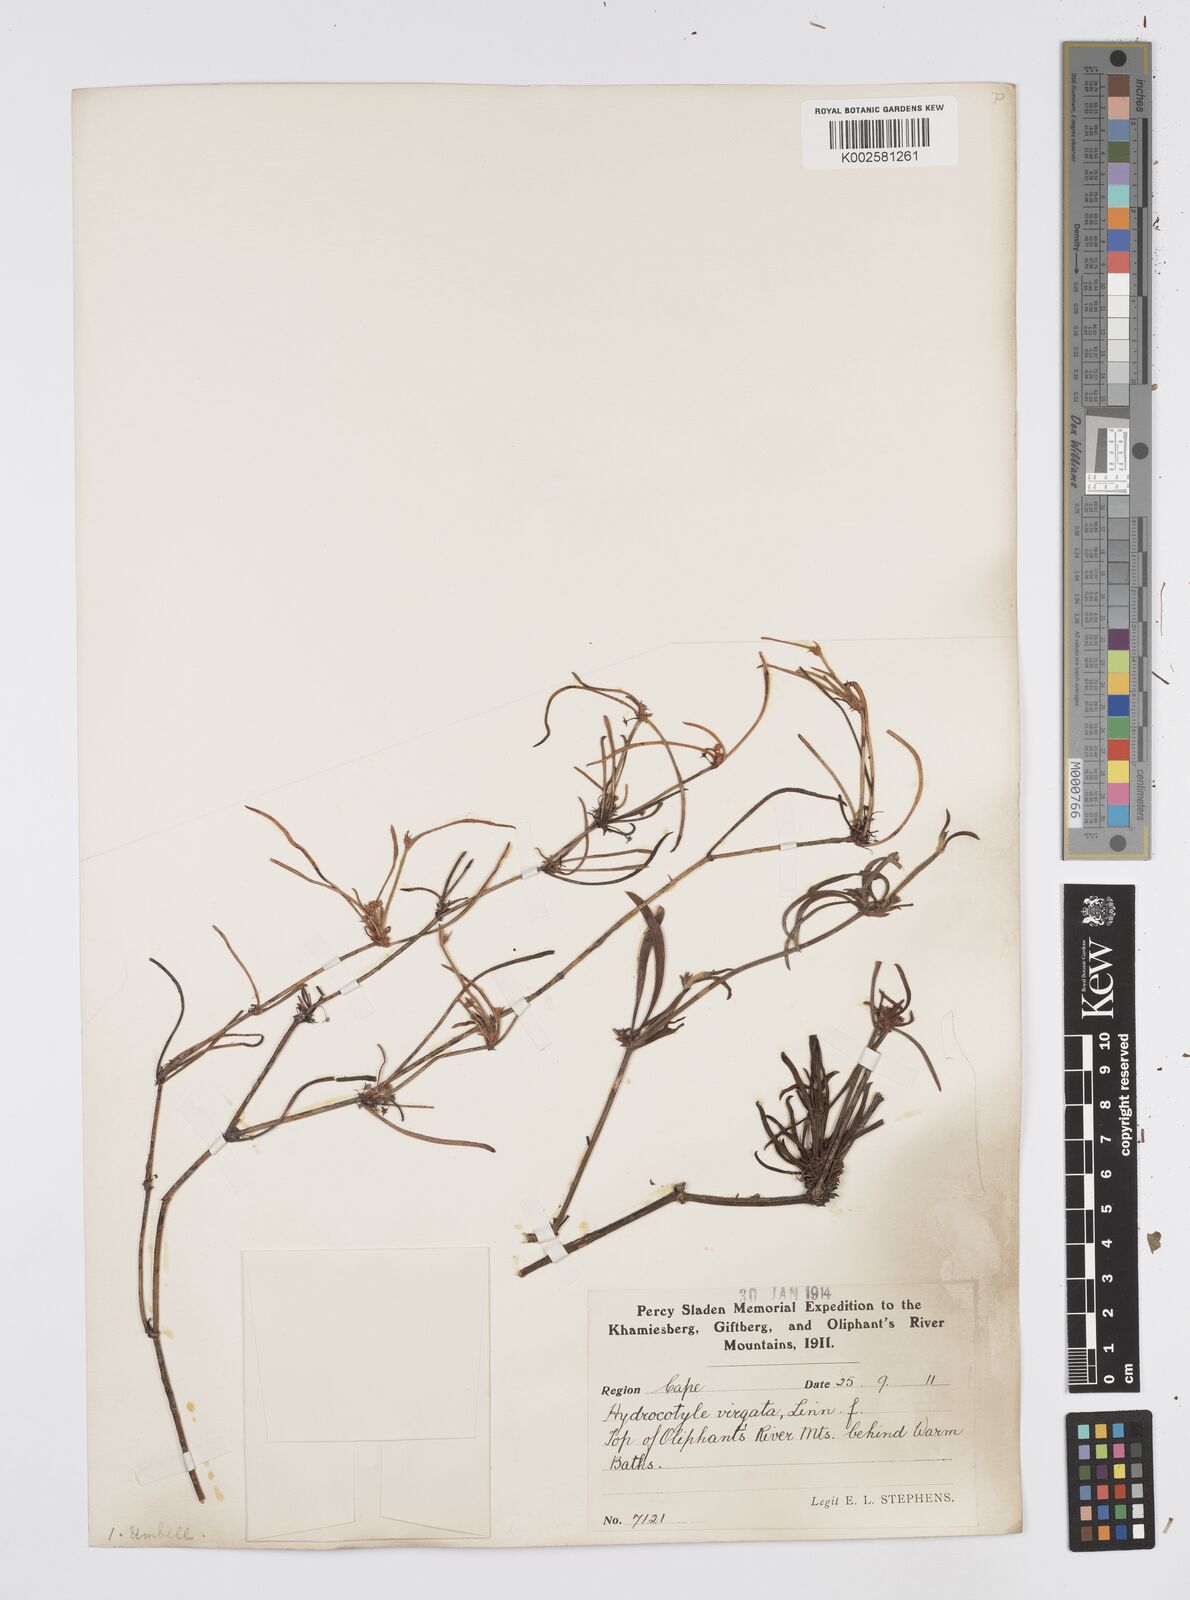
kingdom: Plantae
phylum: Tracheophyta
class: Magnoliopsida
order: Apiales
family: Apiaceae
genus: Centella
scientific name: Centella linifolia
